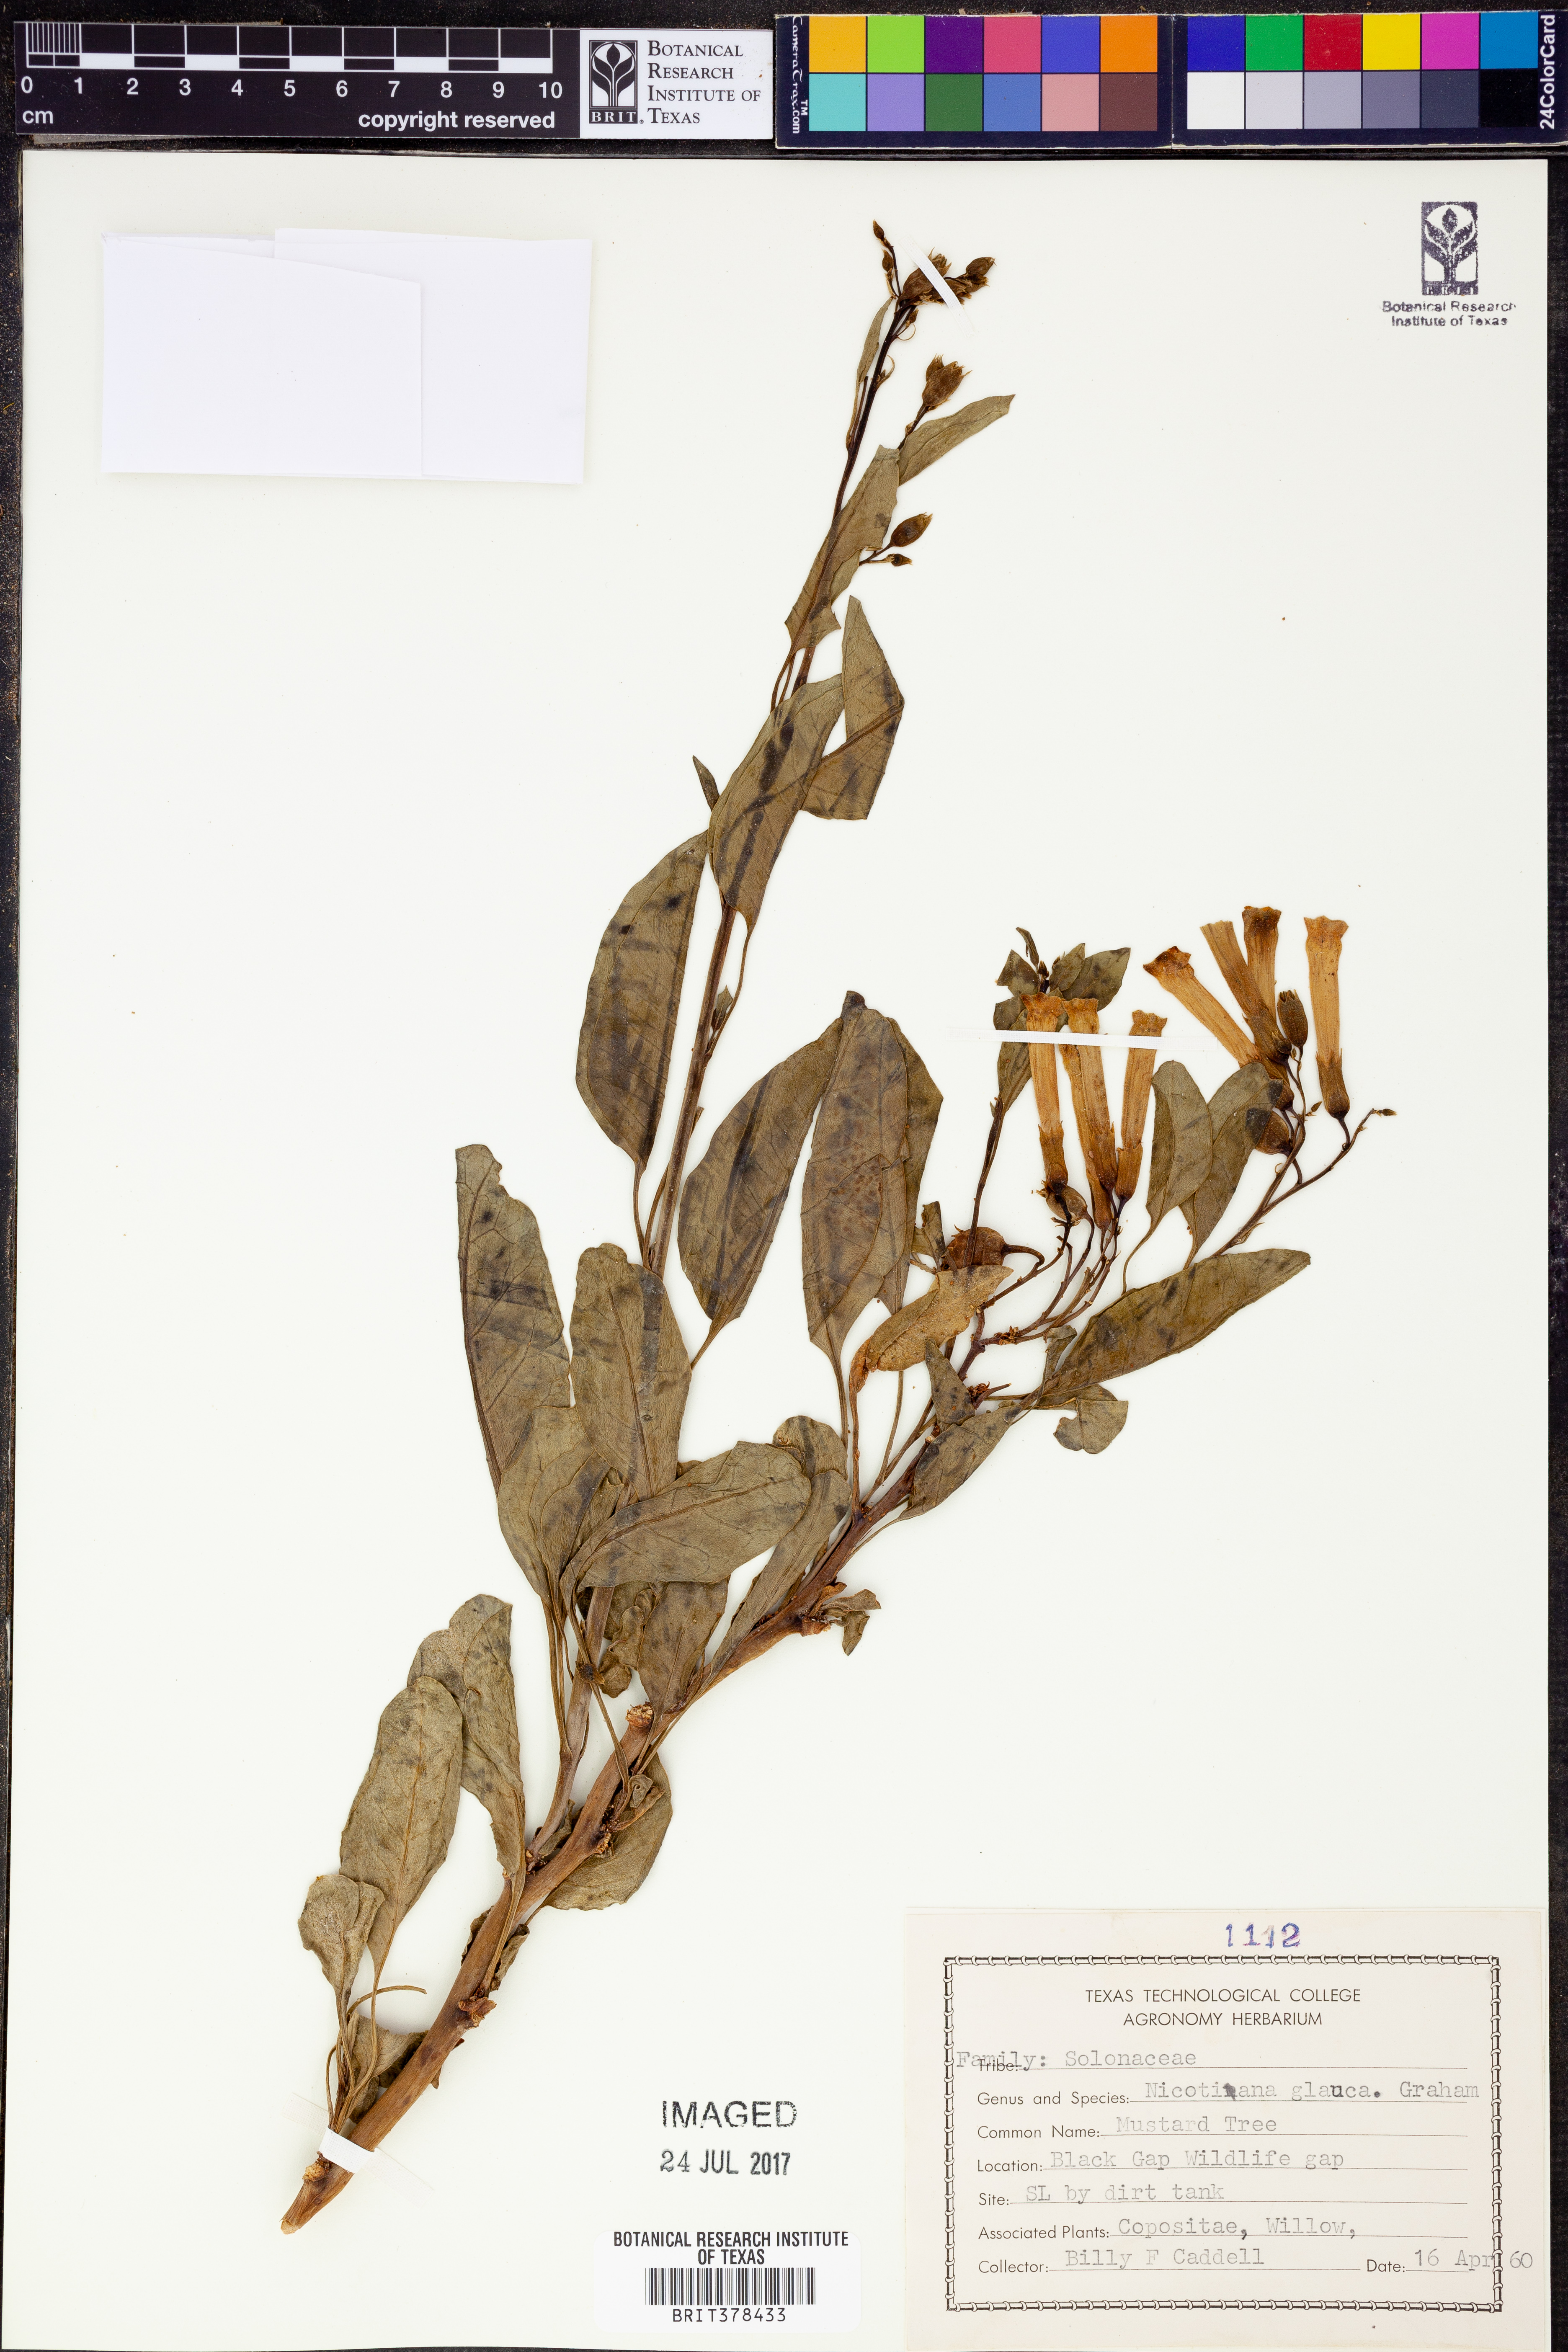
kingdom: Plantae
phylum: Tracheophyta
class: Magnoliopsida
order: Solanales
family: Solanaceae
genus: Nicotiana
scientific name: Nicotiana glauca
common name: Tree tobacco
